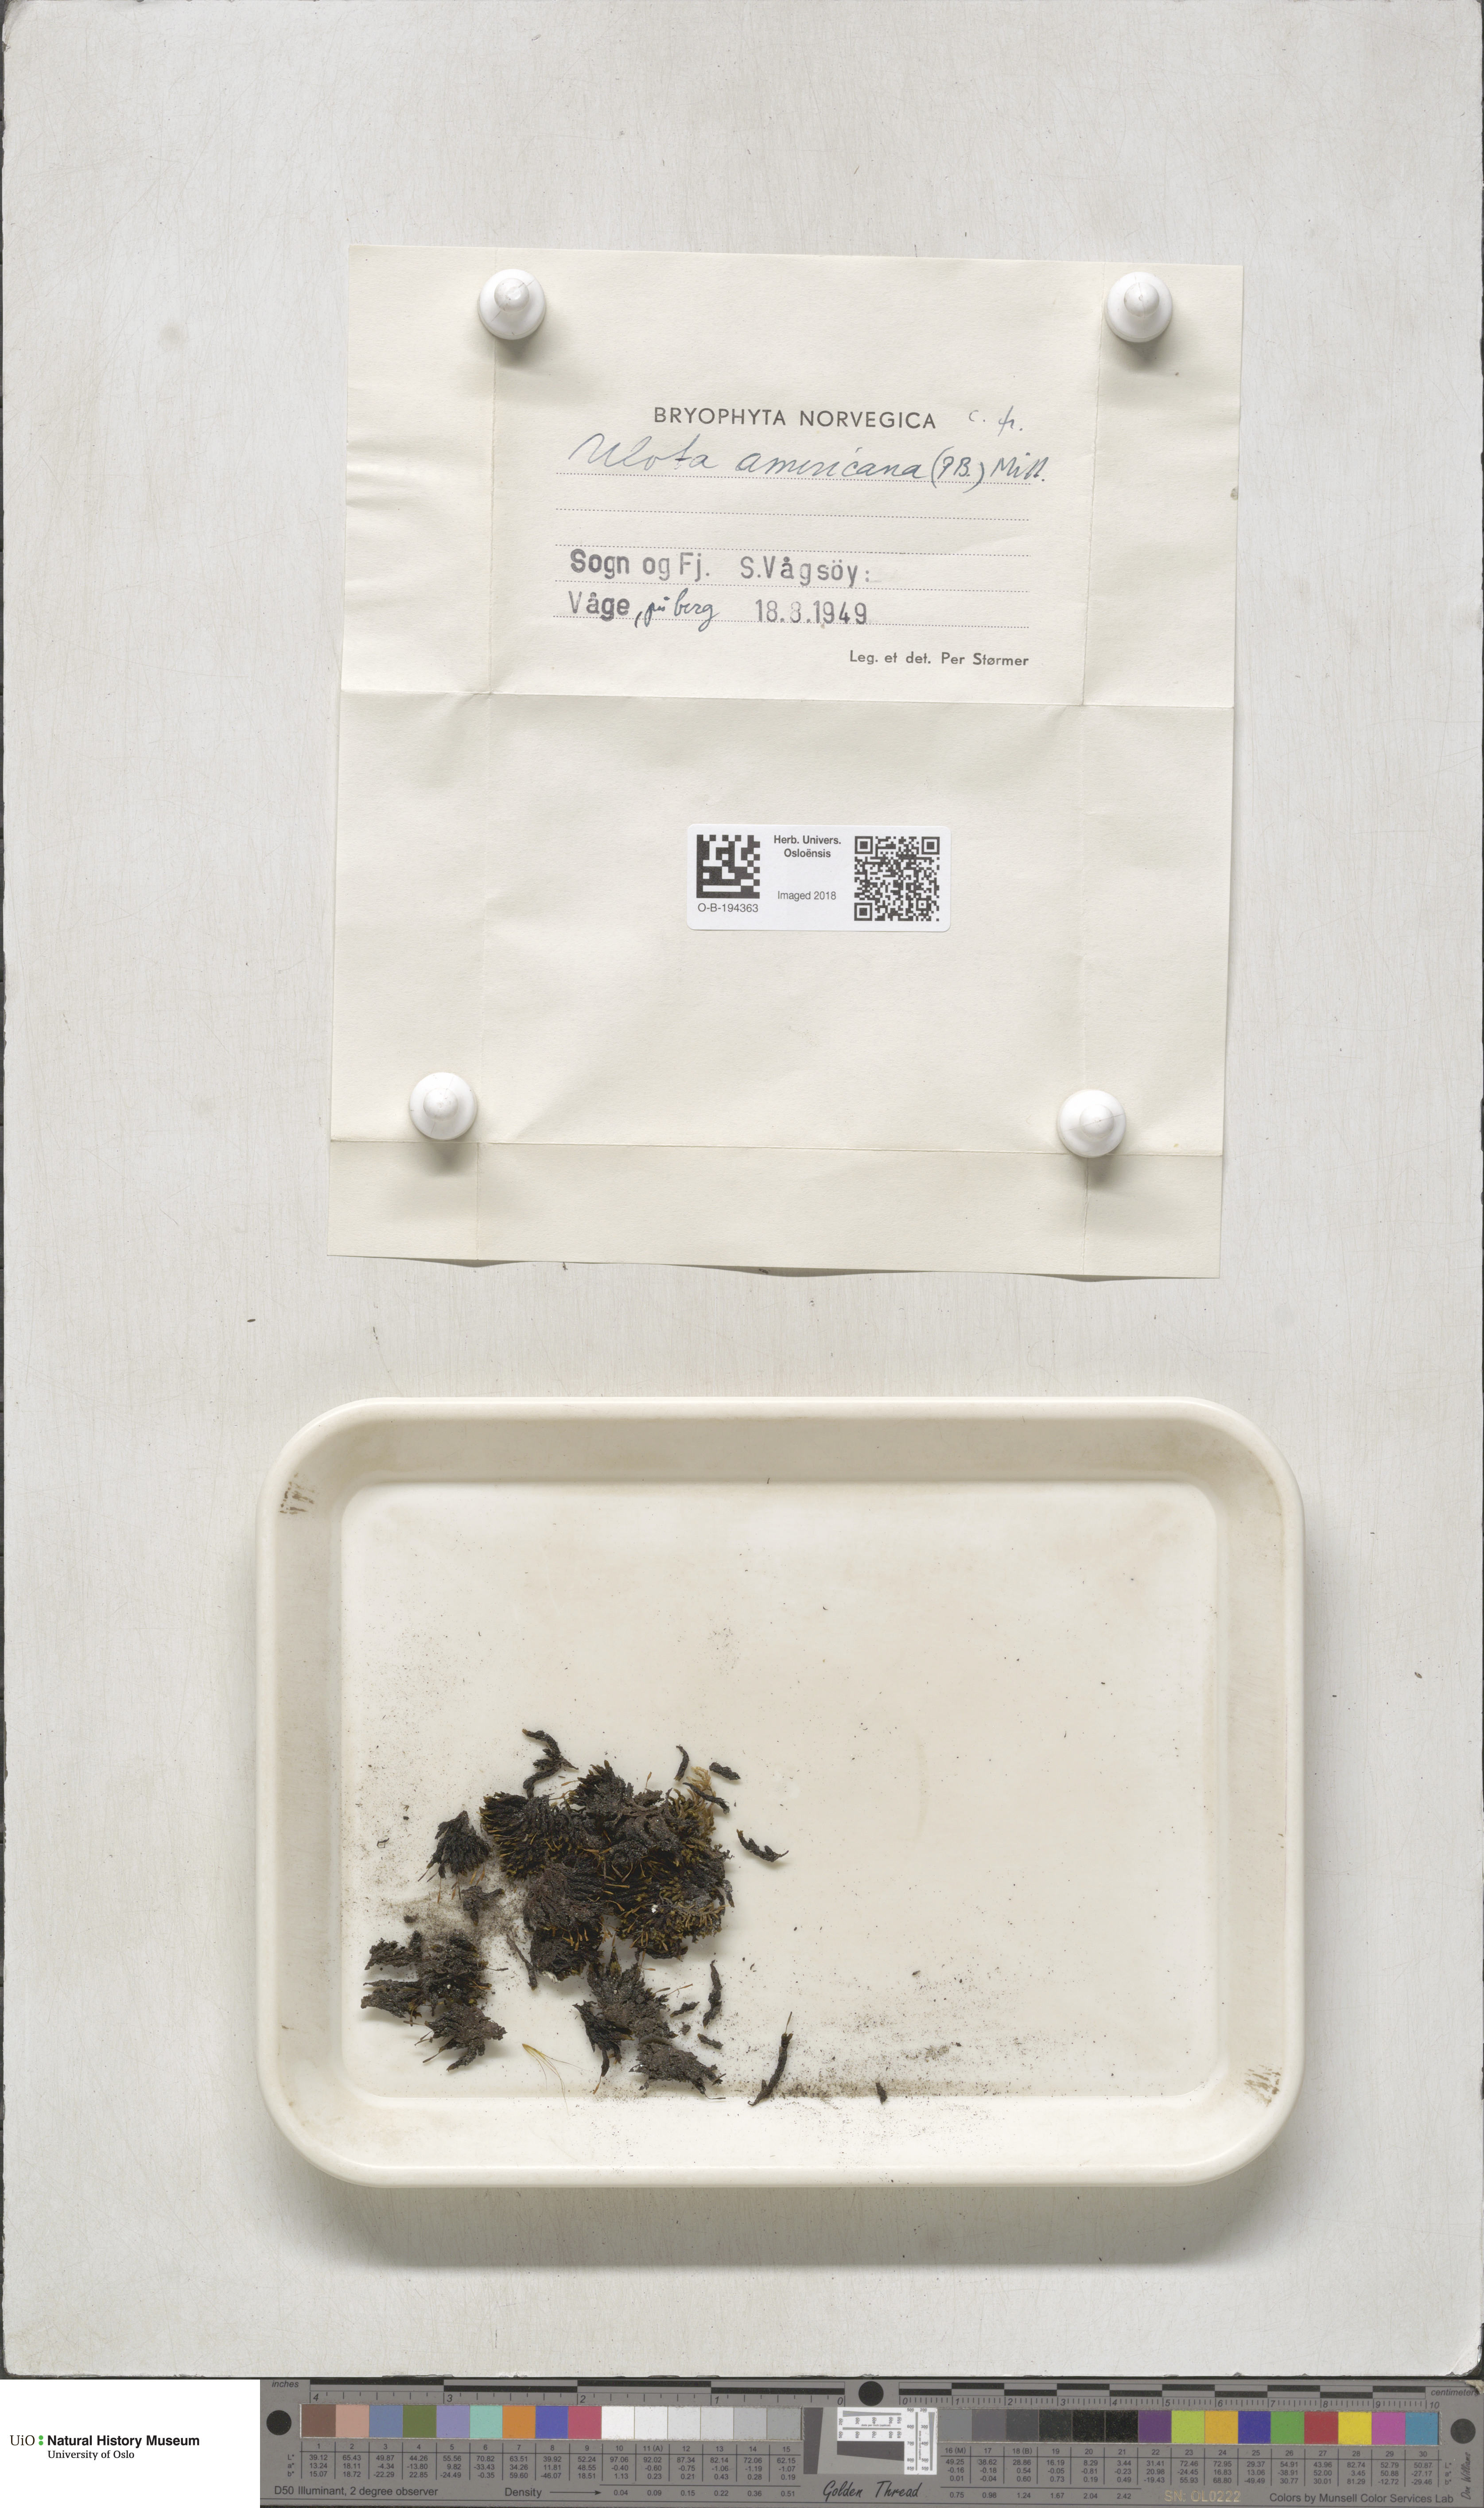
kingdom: Plantae
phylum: Bryophyta
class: Bryopsida
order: Orthotrichales
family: Orthotrichaceae
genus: Ulota
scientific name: Ulota hutchinsiae
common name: Hutchins' pincushion
